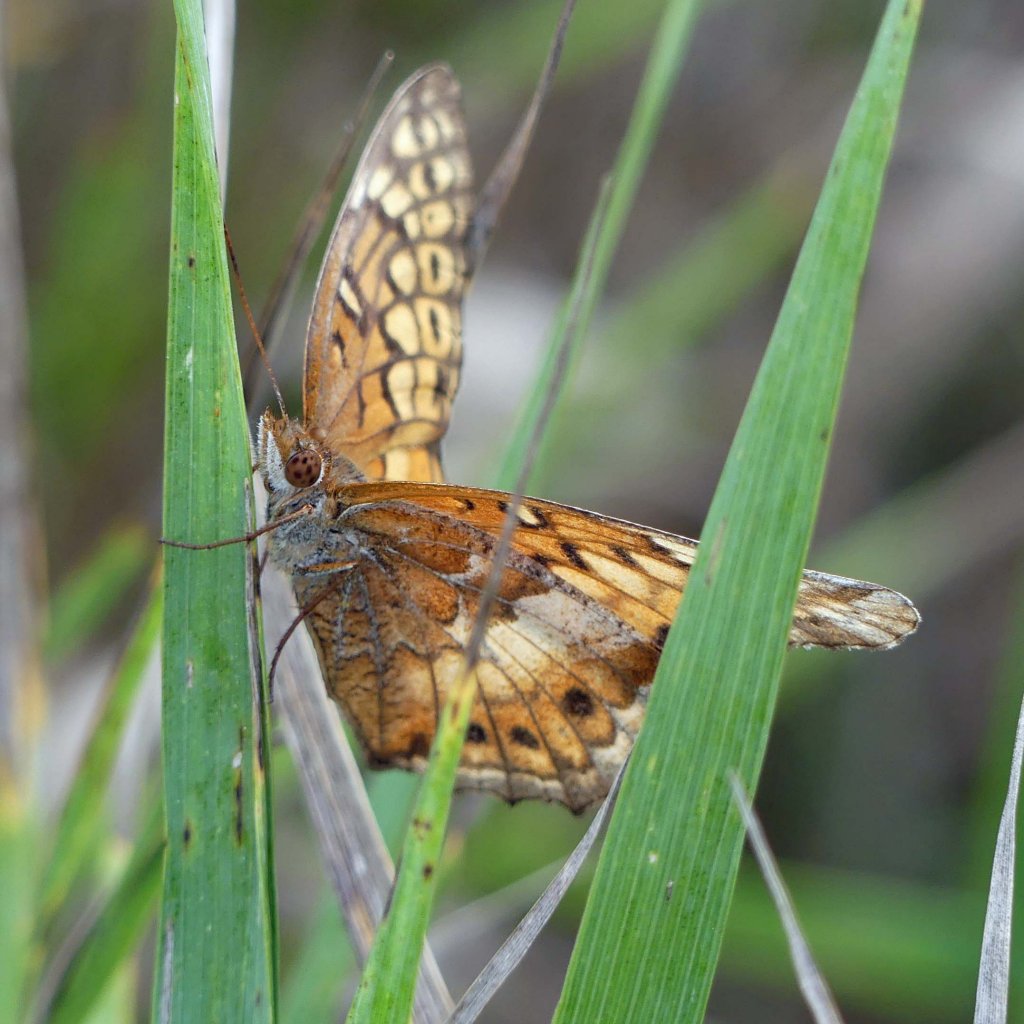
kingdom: Animalia
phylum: Arthropoda
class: Insecta
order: Lepidoptera
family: Nymphalidae
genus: Euptoieta
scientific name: Euptoieta claudia
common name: Variegated Fritillary
